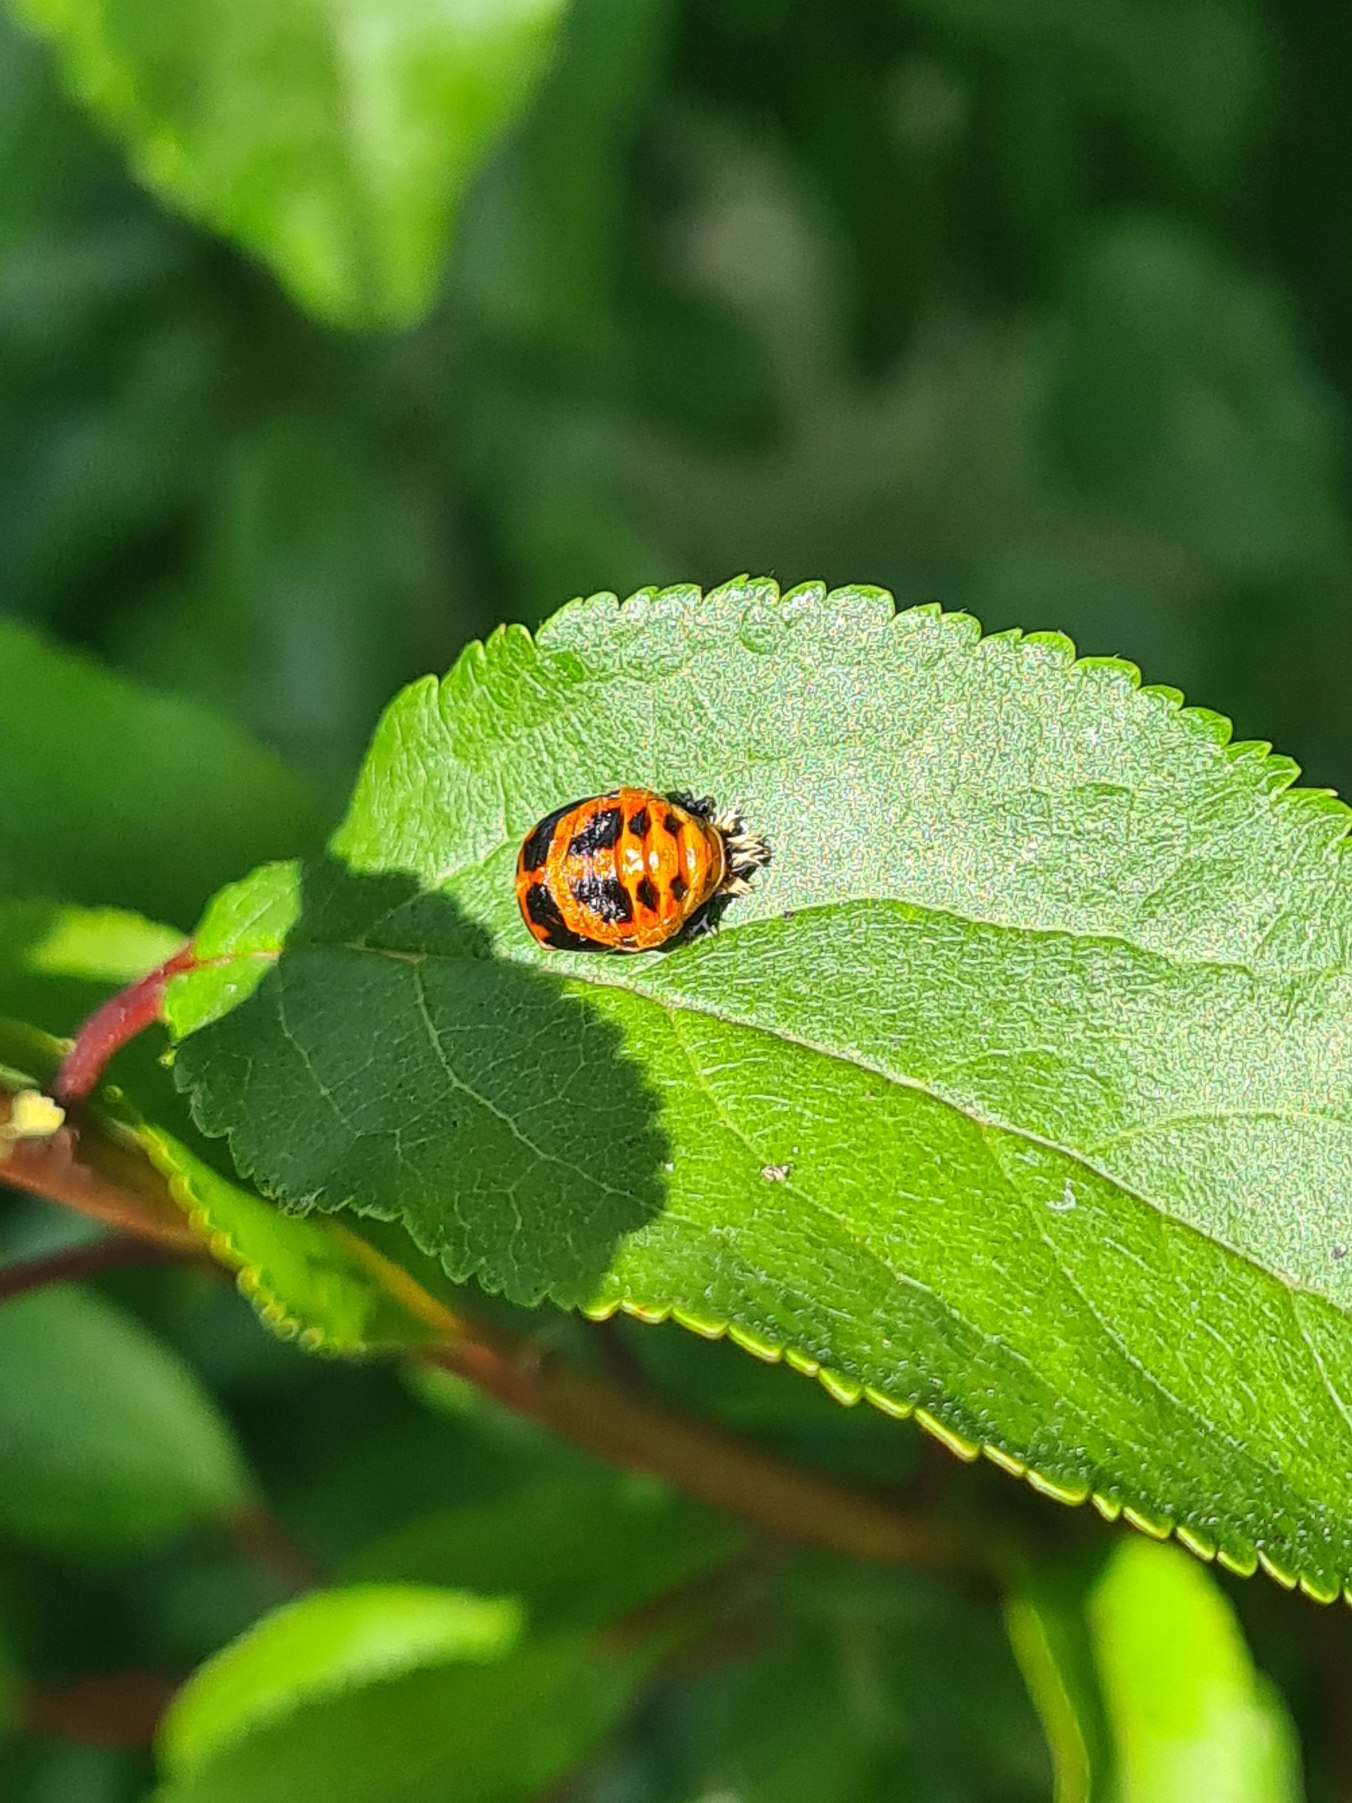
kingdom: Animalia
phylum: Arthropoda
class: Insecta
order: Coleoptera
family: Coccinellidae
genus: Harmonia
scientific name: Harmonia axyridis
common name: Harlekinmariehøne
